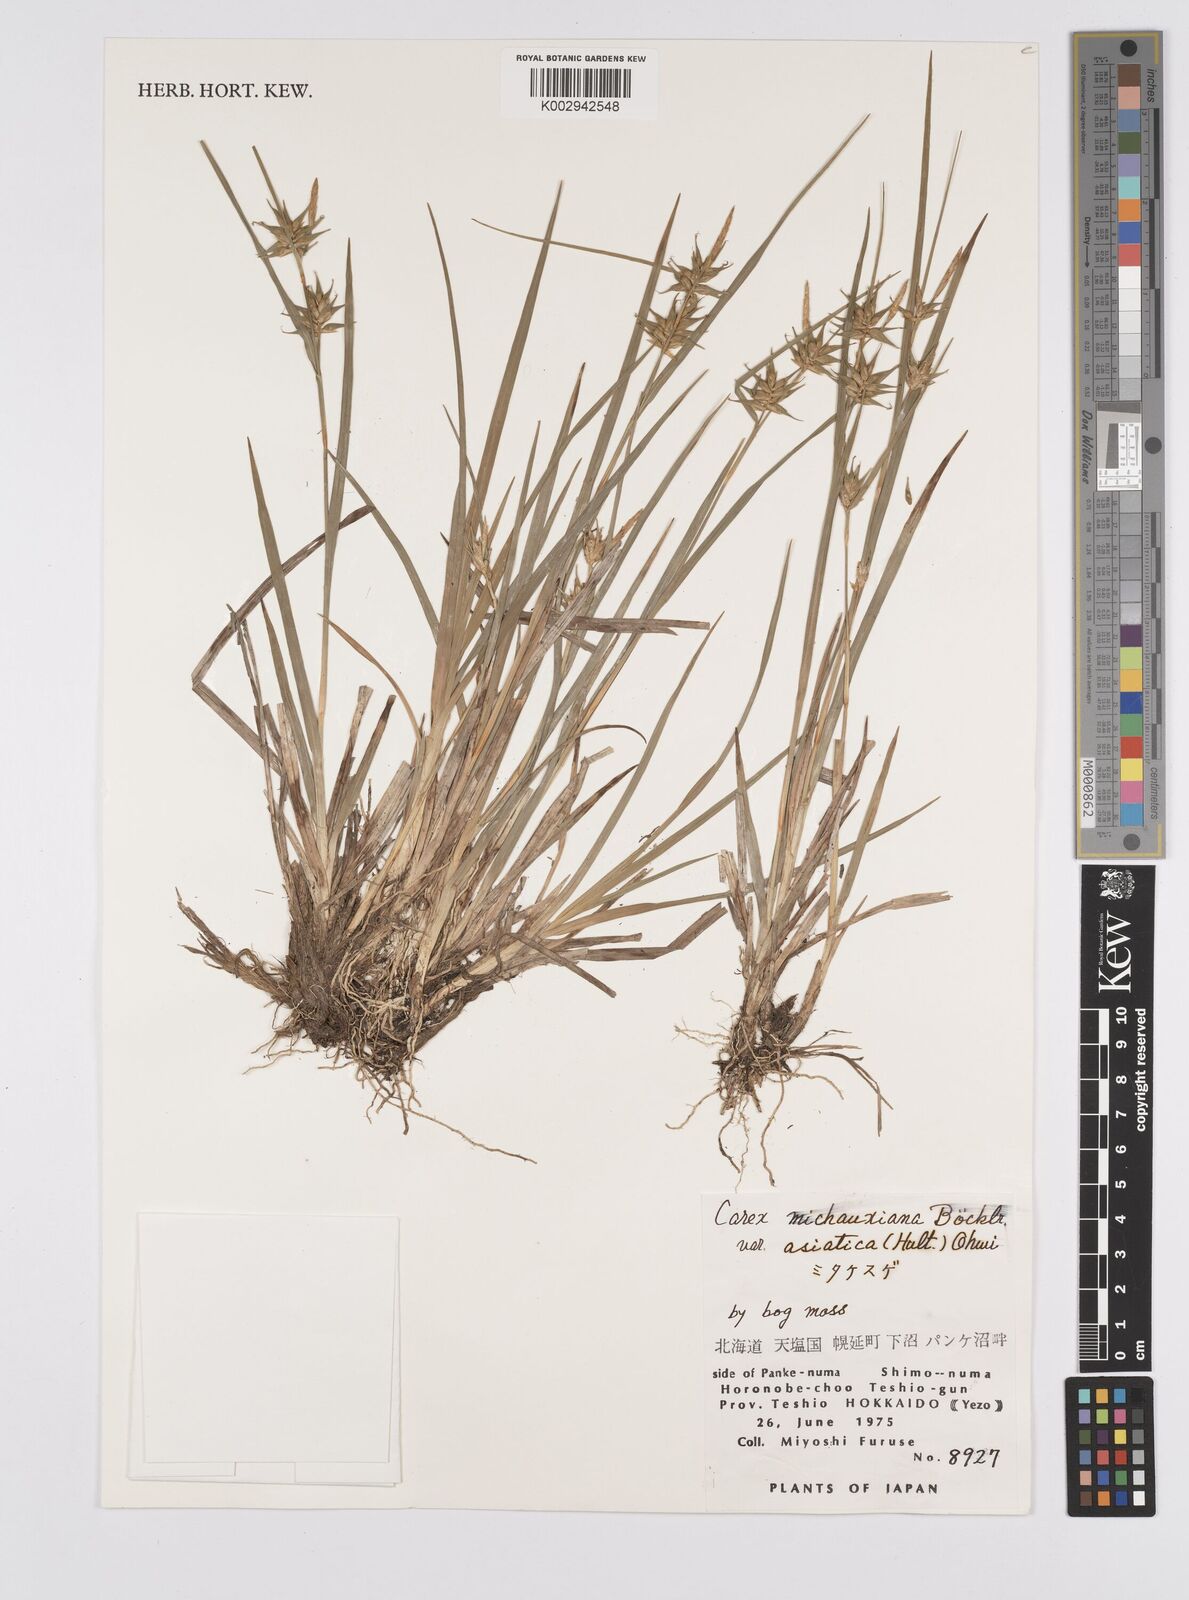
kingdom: Plantae
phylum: Tracheophyta
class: Liliopsida
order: Poales
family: Cyperaceae
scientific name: Cyperaceae
